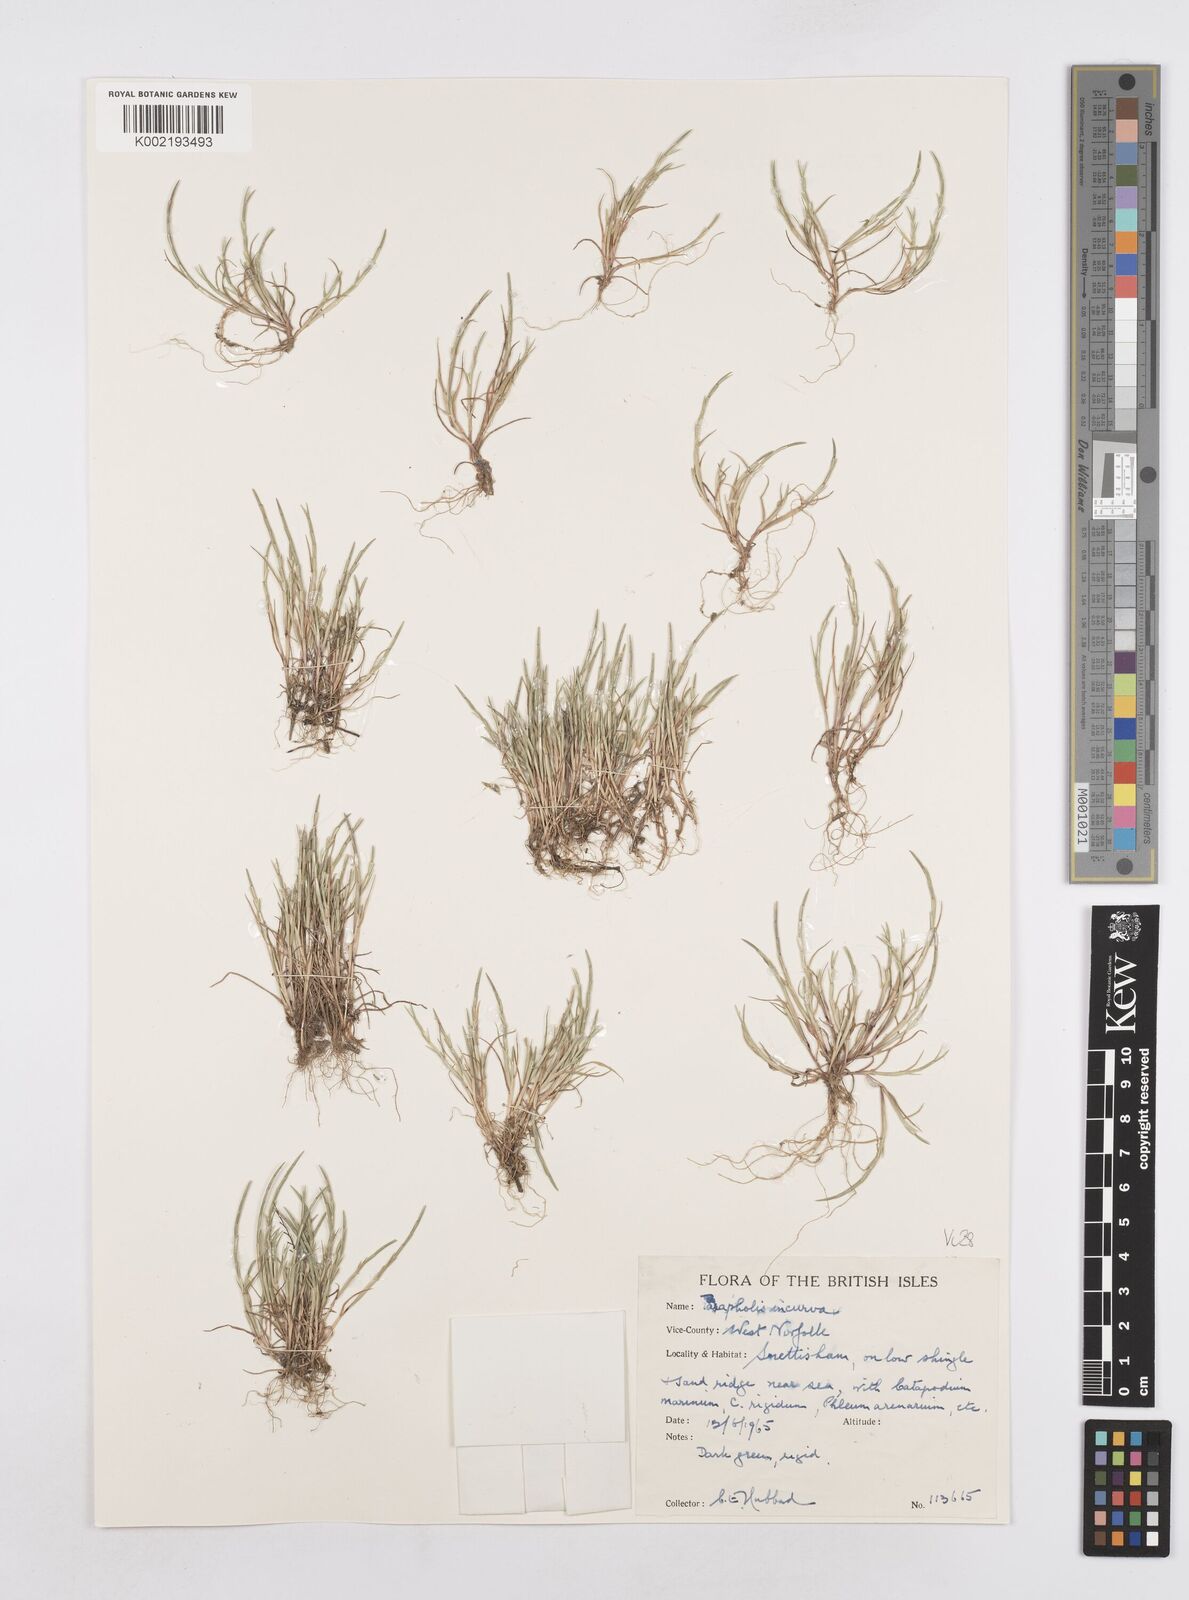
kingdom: Plantae
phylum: Tracheophyta
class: Liliopsida
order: Poales
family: Poaceae
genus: Parapholis
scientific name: Parapholis incurva
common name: Curved sicklegrass
